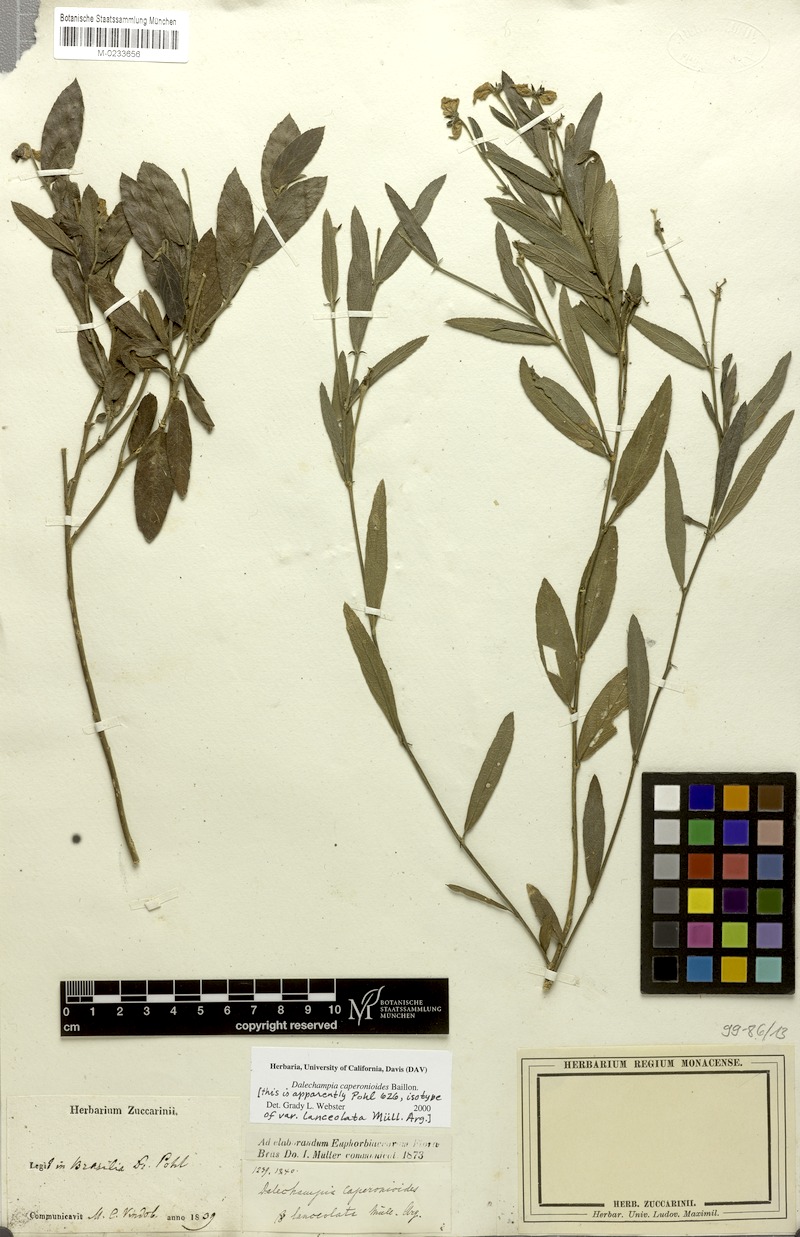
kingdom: Plantae
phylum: Tracheophyta
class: Magnoliopsida
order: Malpighiales
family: Euphorbiaceae
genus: Dalechampia
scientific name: Dalechampia caperonioides
